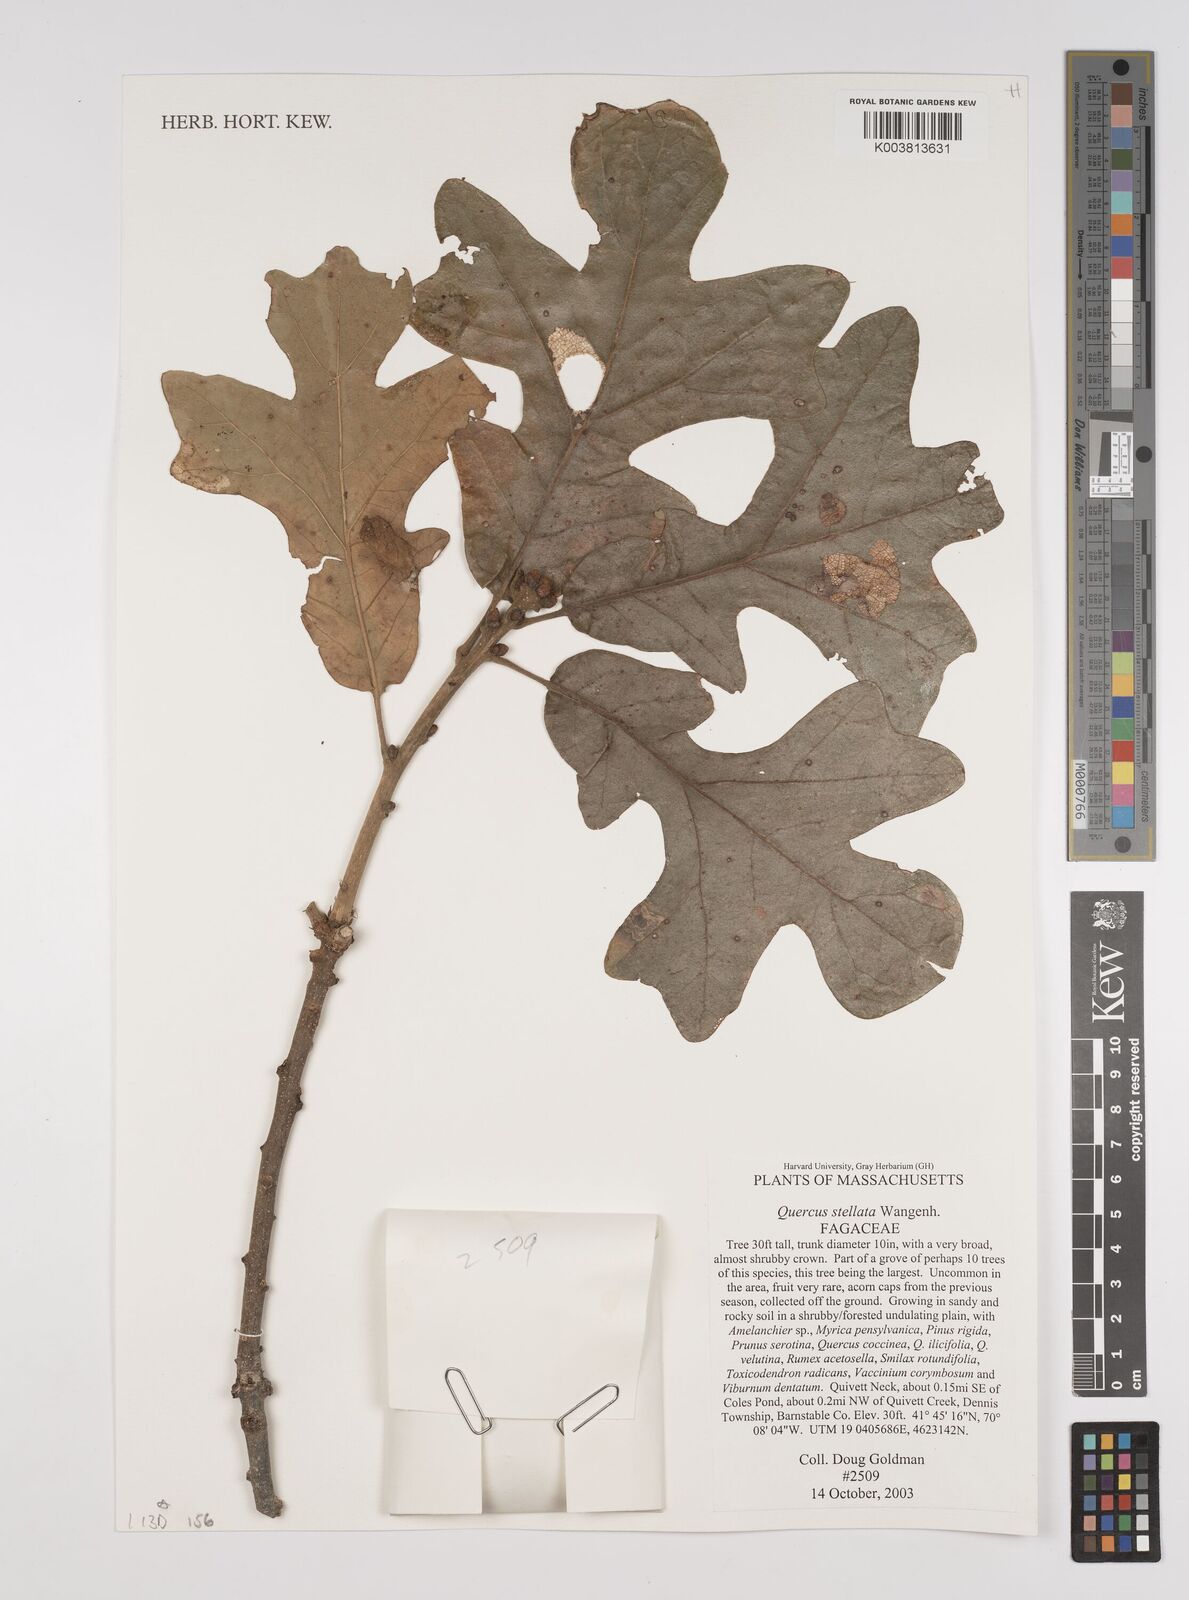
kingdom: Plantae
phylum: Tracheophyta
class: Magnoliopsida
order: Fagales
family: Fagaceae
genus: Quercus
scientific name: Quercus stellata
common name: Post oak
